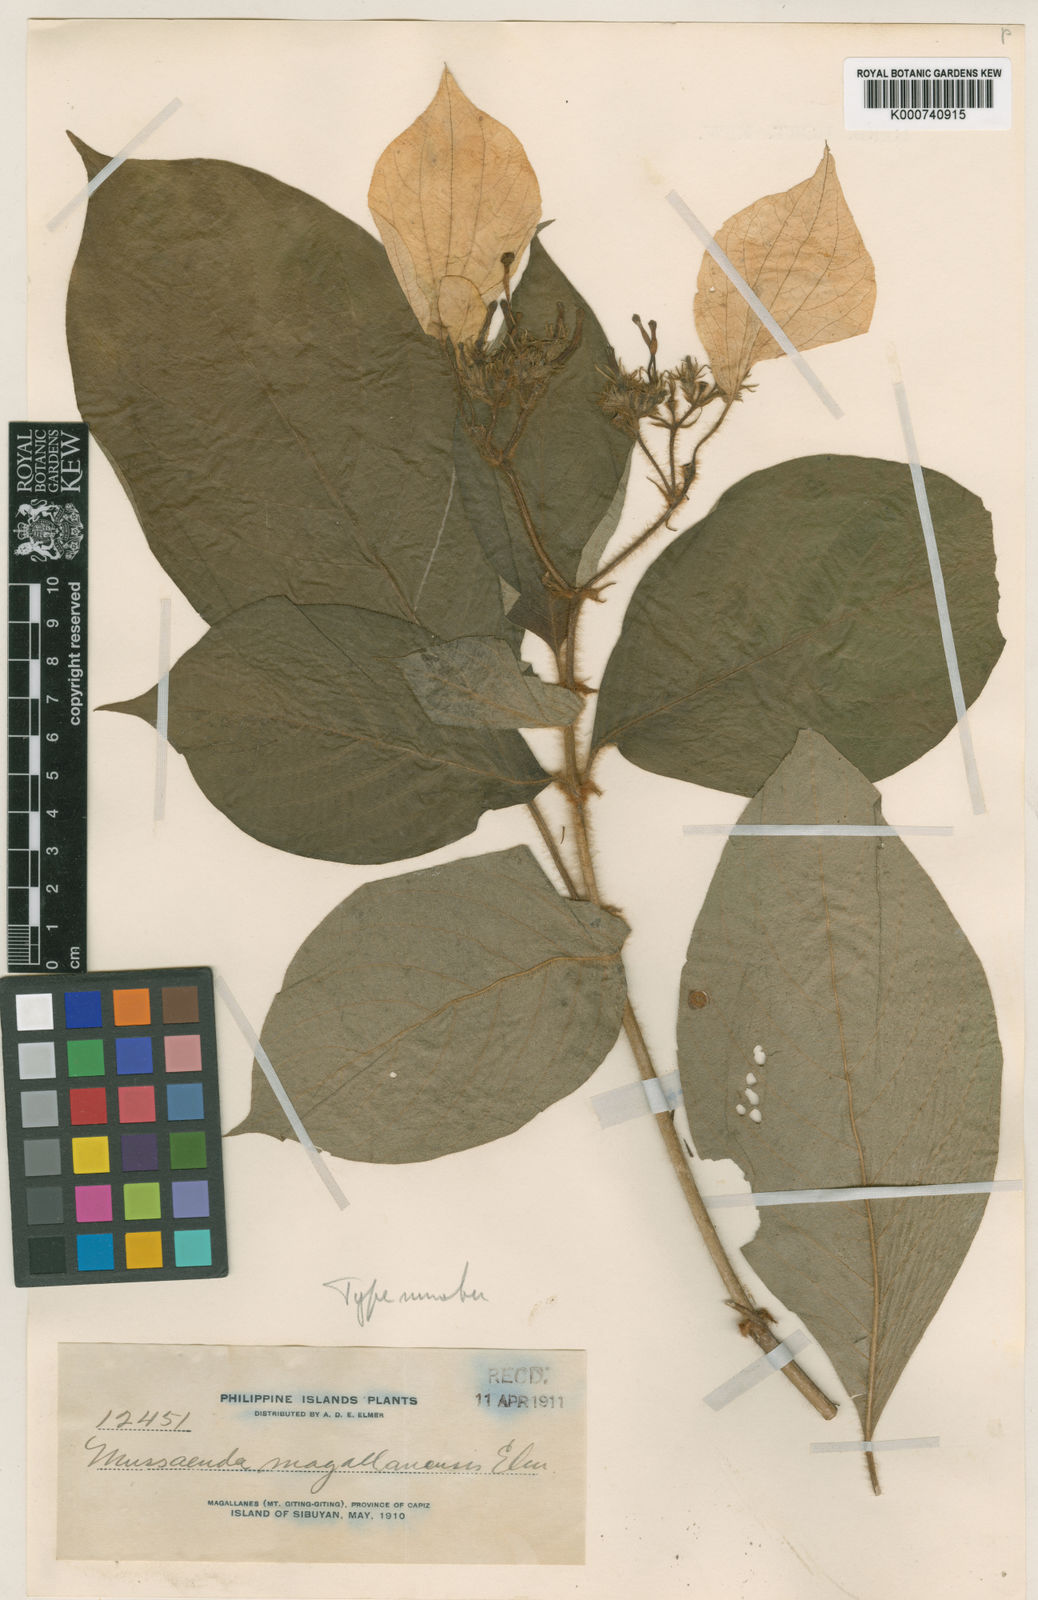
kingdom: Plantae
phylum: Tracheophyta
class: Magnoliopsida
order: Gentianales
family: Rubiaceae
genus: Mussaenda
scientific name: Mussaenda magallanensis
